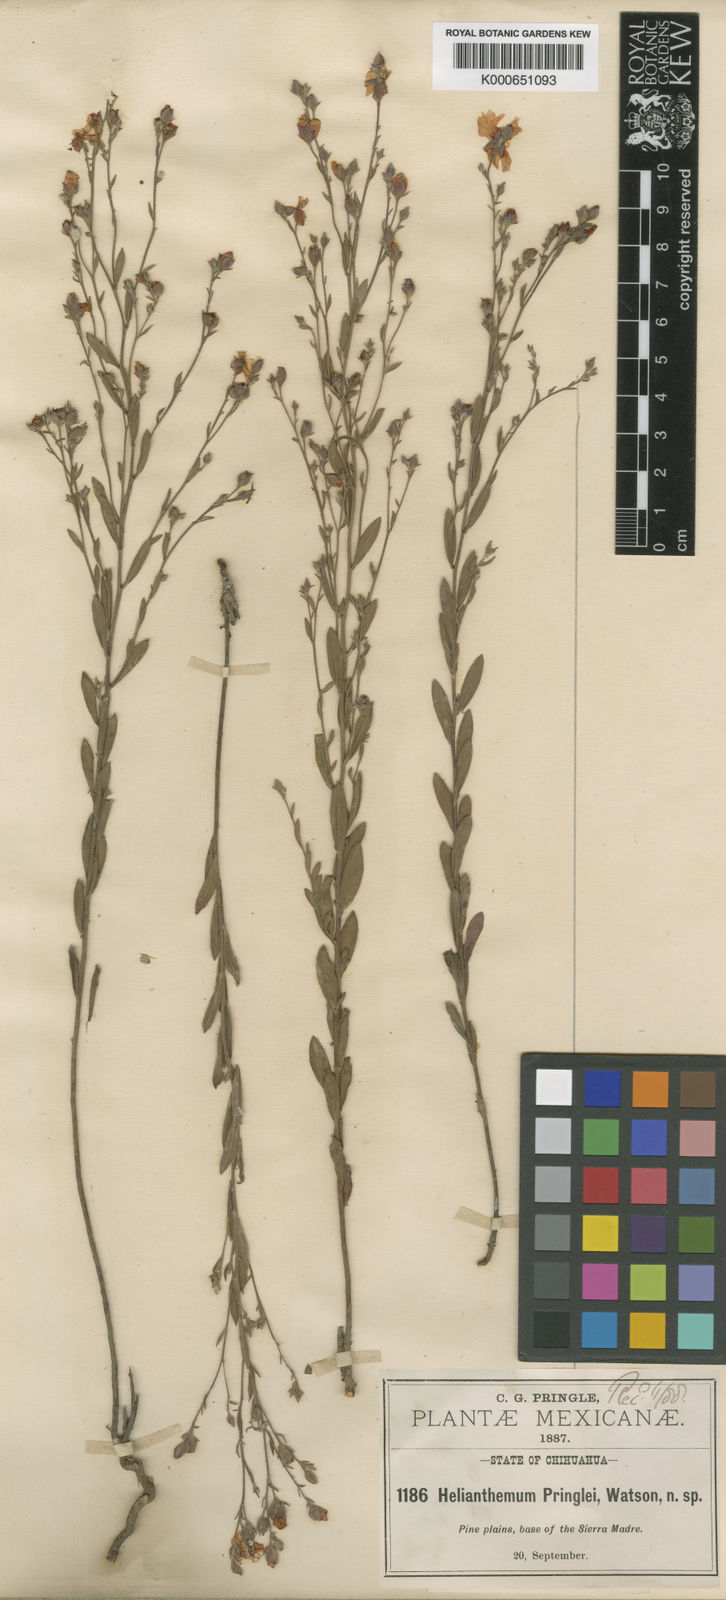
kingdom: Plantae
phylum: Tracheophyta
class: Magnoliopsida
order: Malvales
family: Cistaceae
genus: Halimium
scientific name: Halimium
